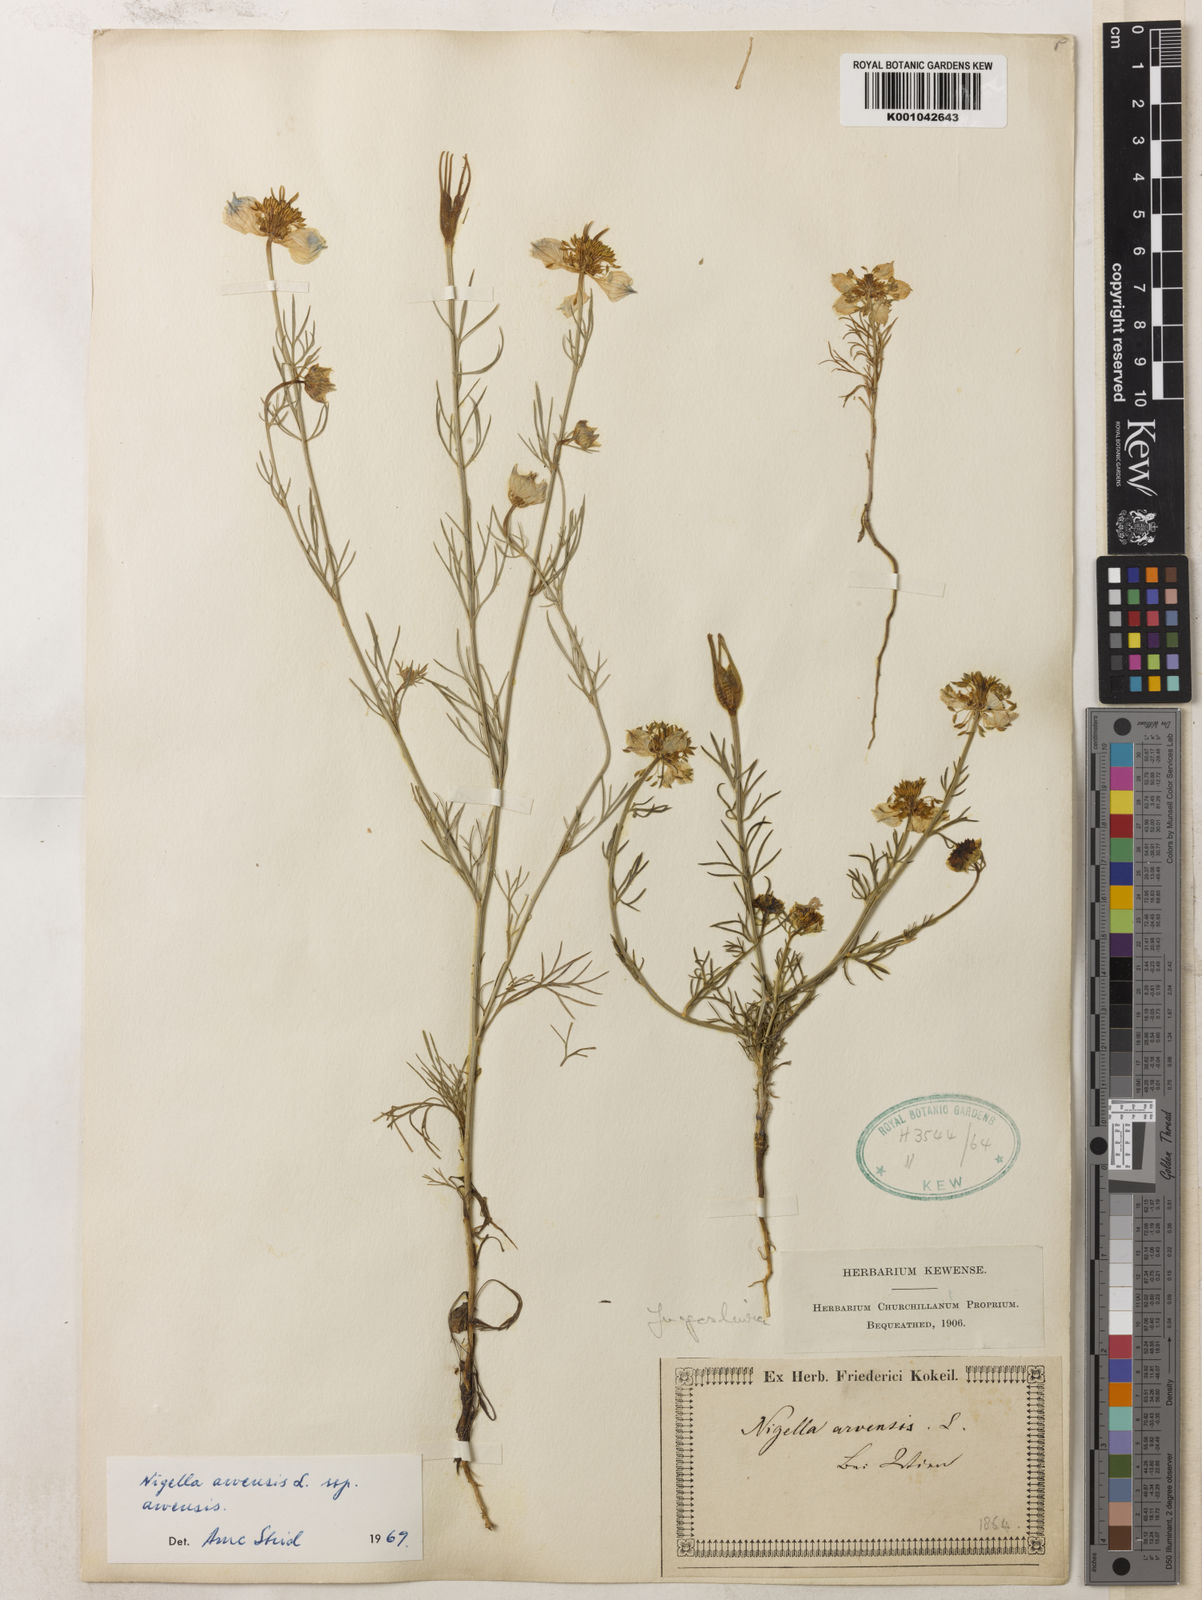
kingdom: Plantae
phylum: Tracheophyta
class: Magnoliopsida
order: Ranunculales
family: Ranunculaceae
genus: Nigella
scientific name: Nigella arvensis
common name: Wild fennel-flower
